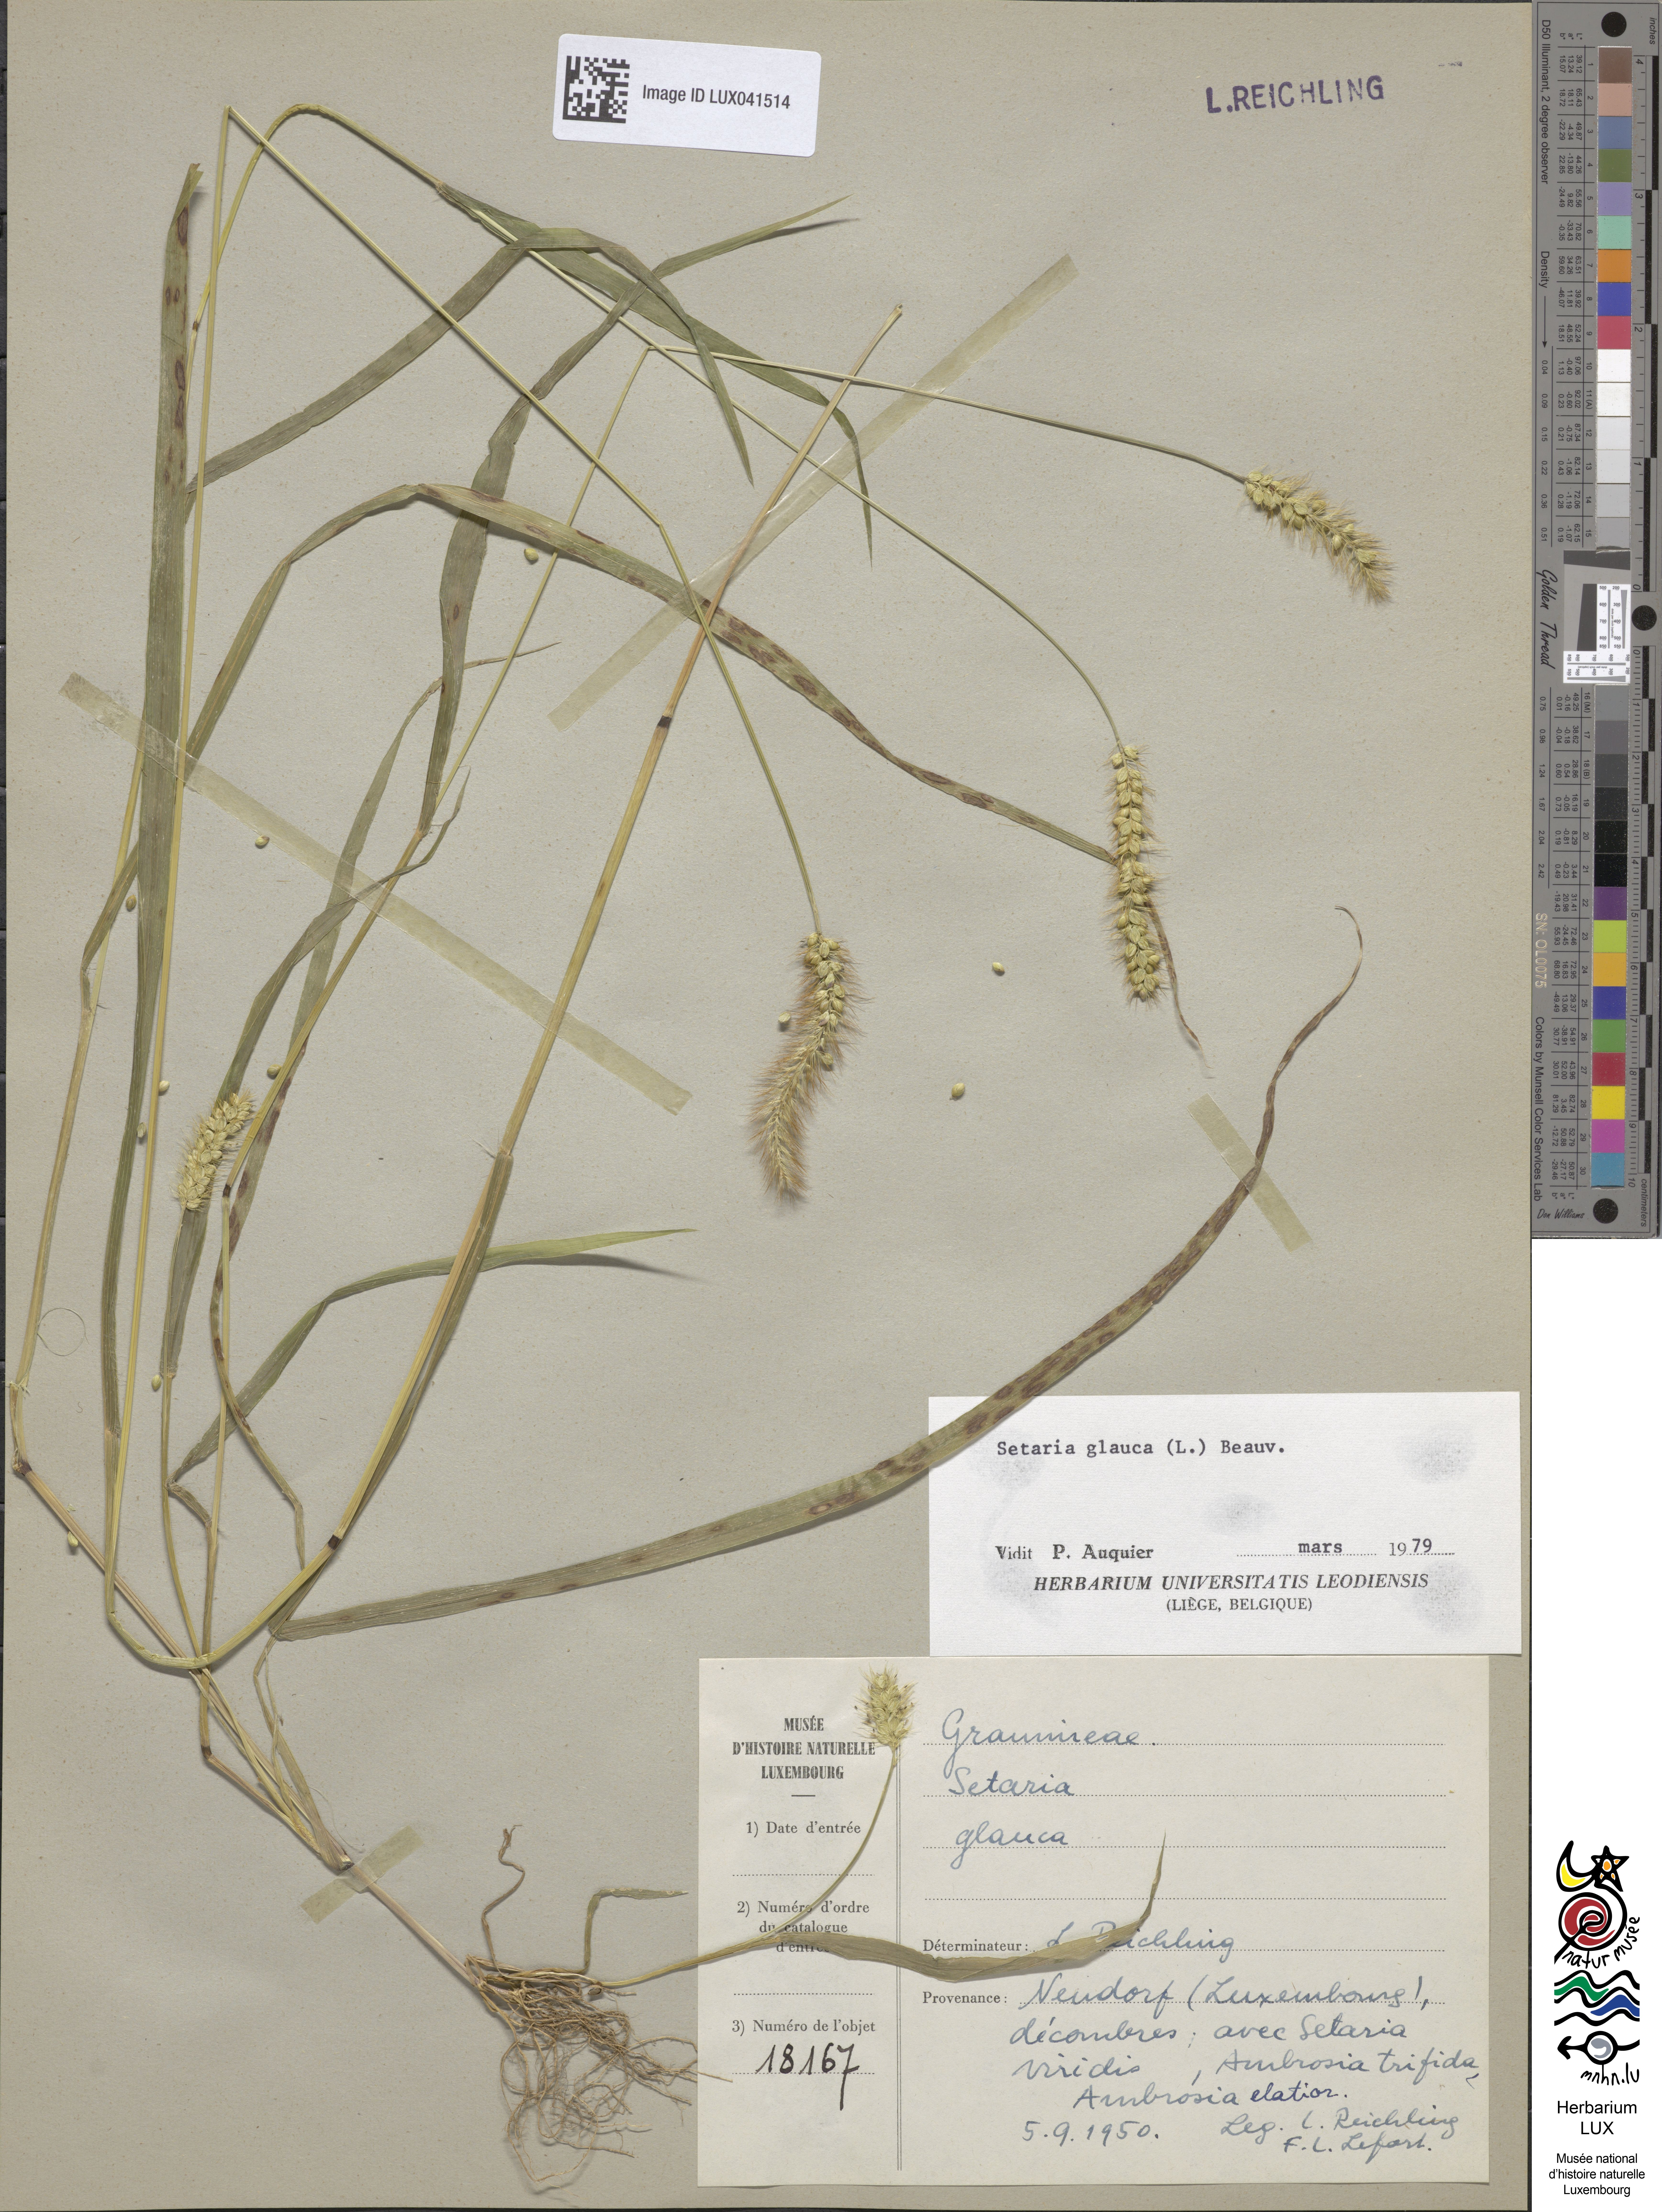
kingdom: Plantae
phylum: Tracheophyta
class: Liliopsida
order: Poales
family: Poaceae
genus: Cenchrus
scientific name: Cenchrus americanus
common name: Pearl millet
